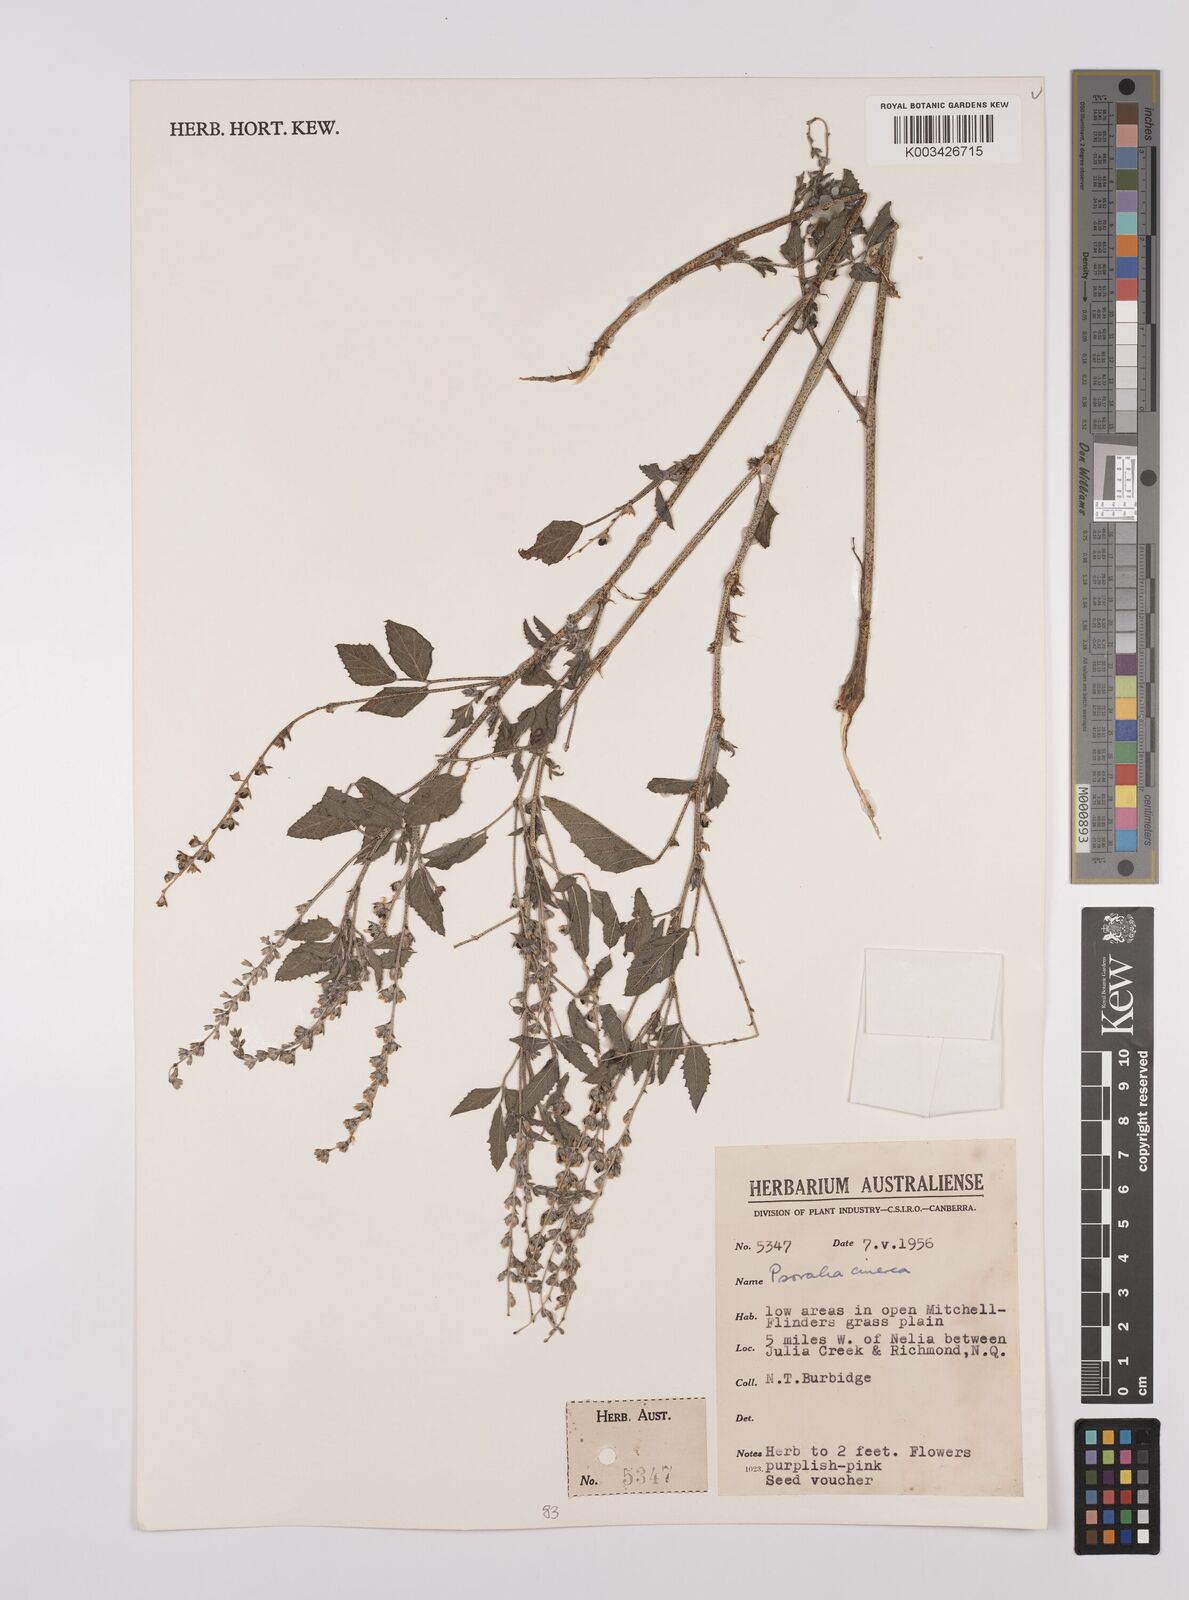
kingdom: Plantae
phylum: Tracheophyta
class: Magnoliopsida
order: Fabales
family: Fabaceae
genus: Cullen
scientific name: Cullen cinereum
